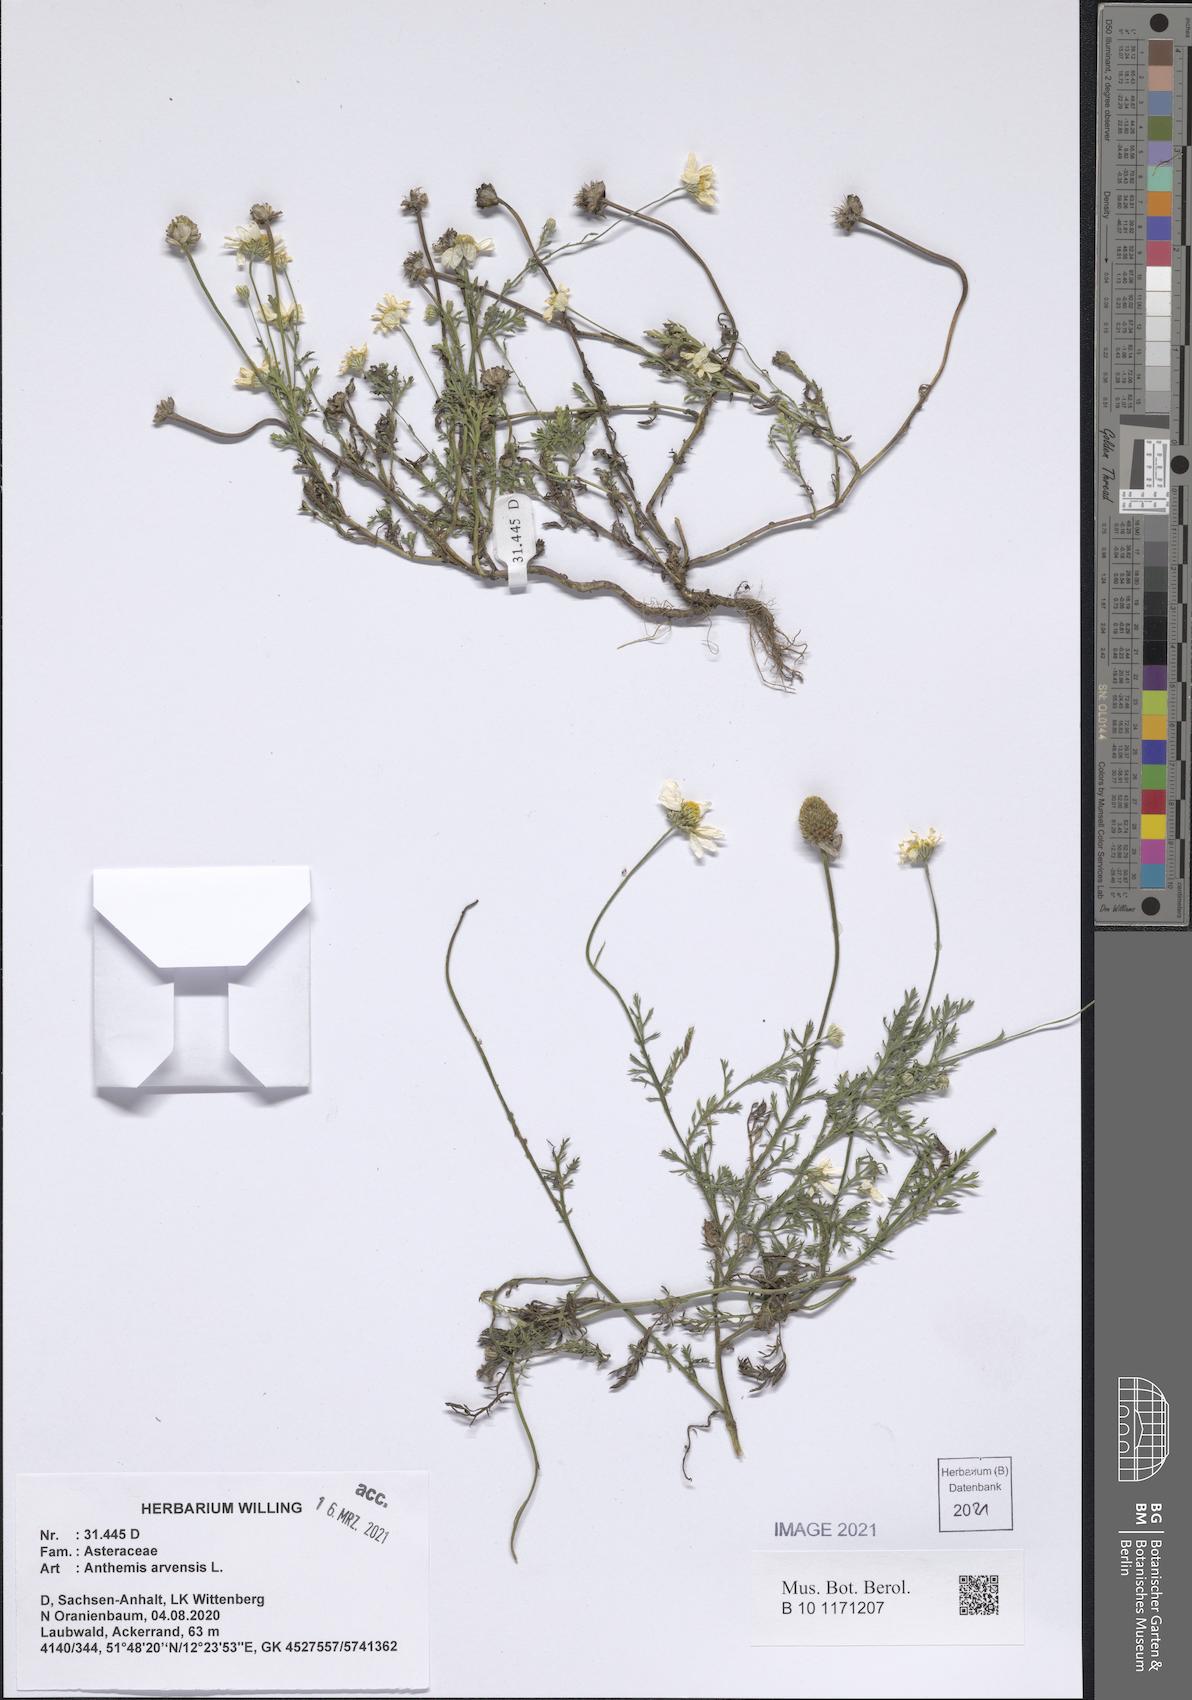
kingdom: Plantae
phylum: Tracheophyta
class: Magnoliopsida
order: Asterales
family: Asteraceae
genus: Anthemis
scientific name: Anthemis arvensis
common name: Corn chamomile
